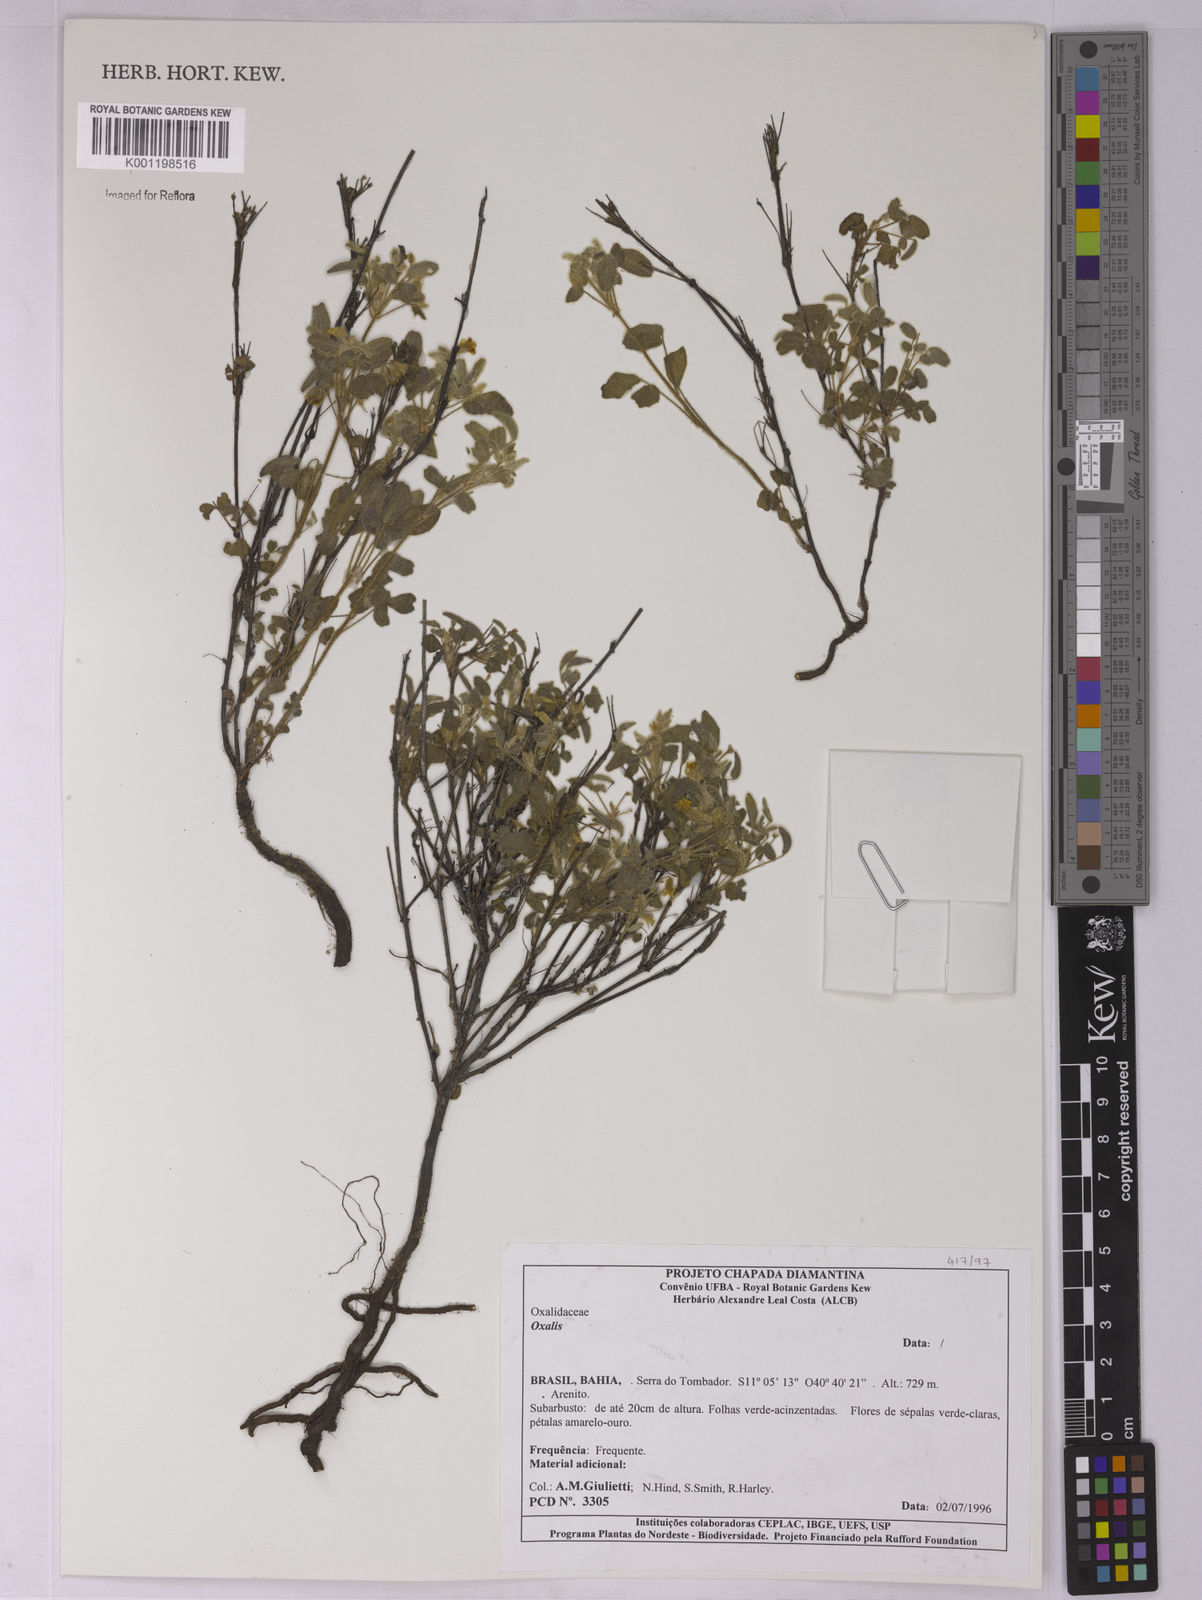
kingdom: Plantae
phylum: Tracheophyta
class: Magnoliopsida
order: Oxalidales
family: Oxalidaceae
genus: Oxalis
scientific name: Oxalis
